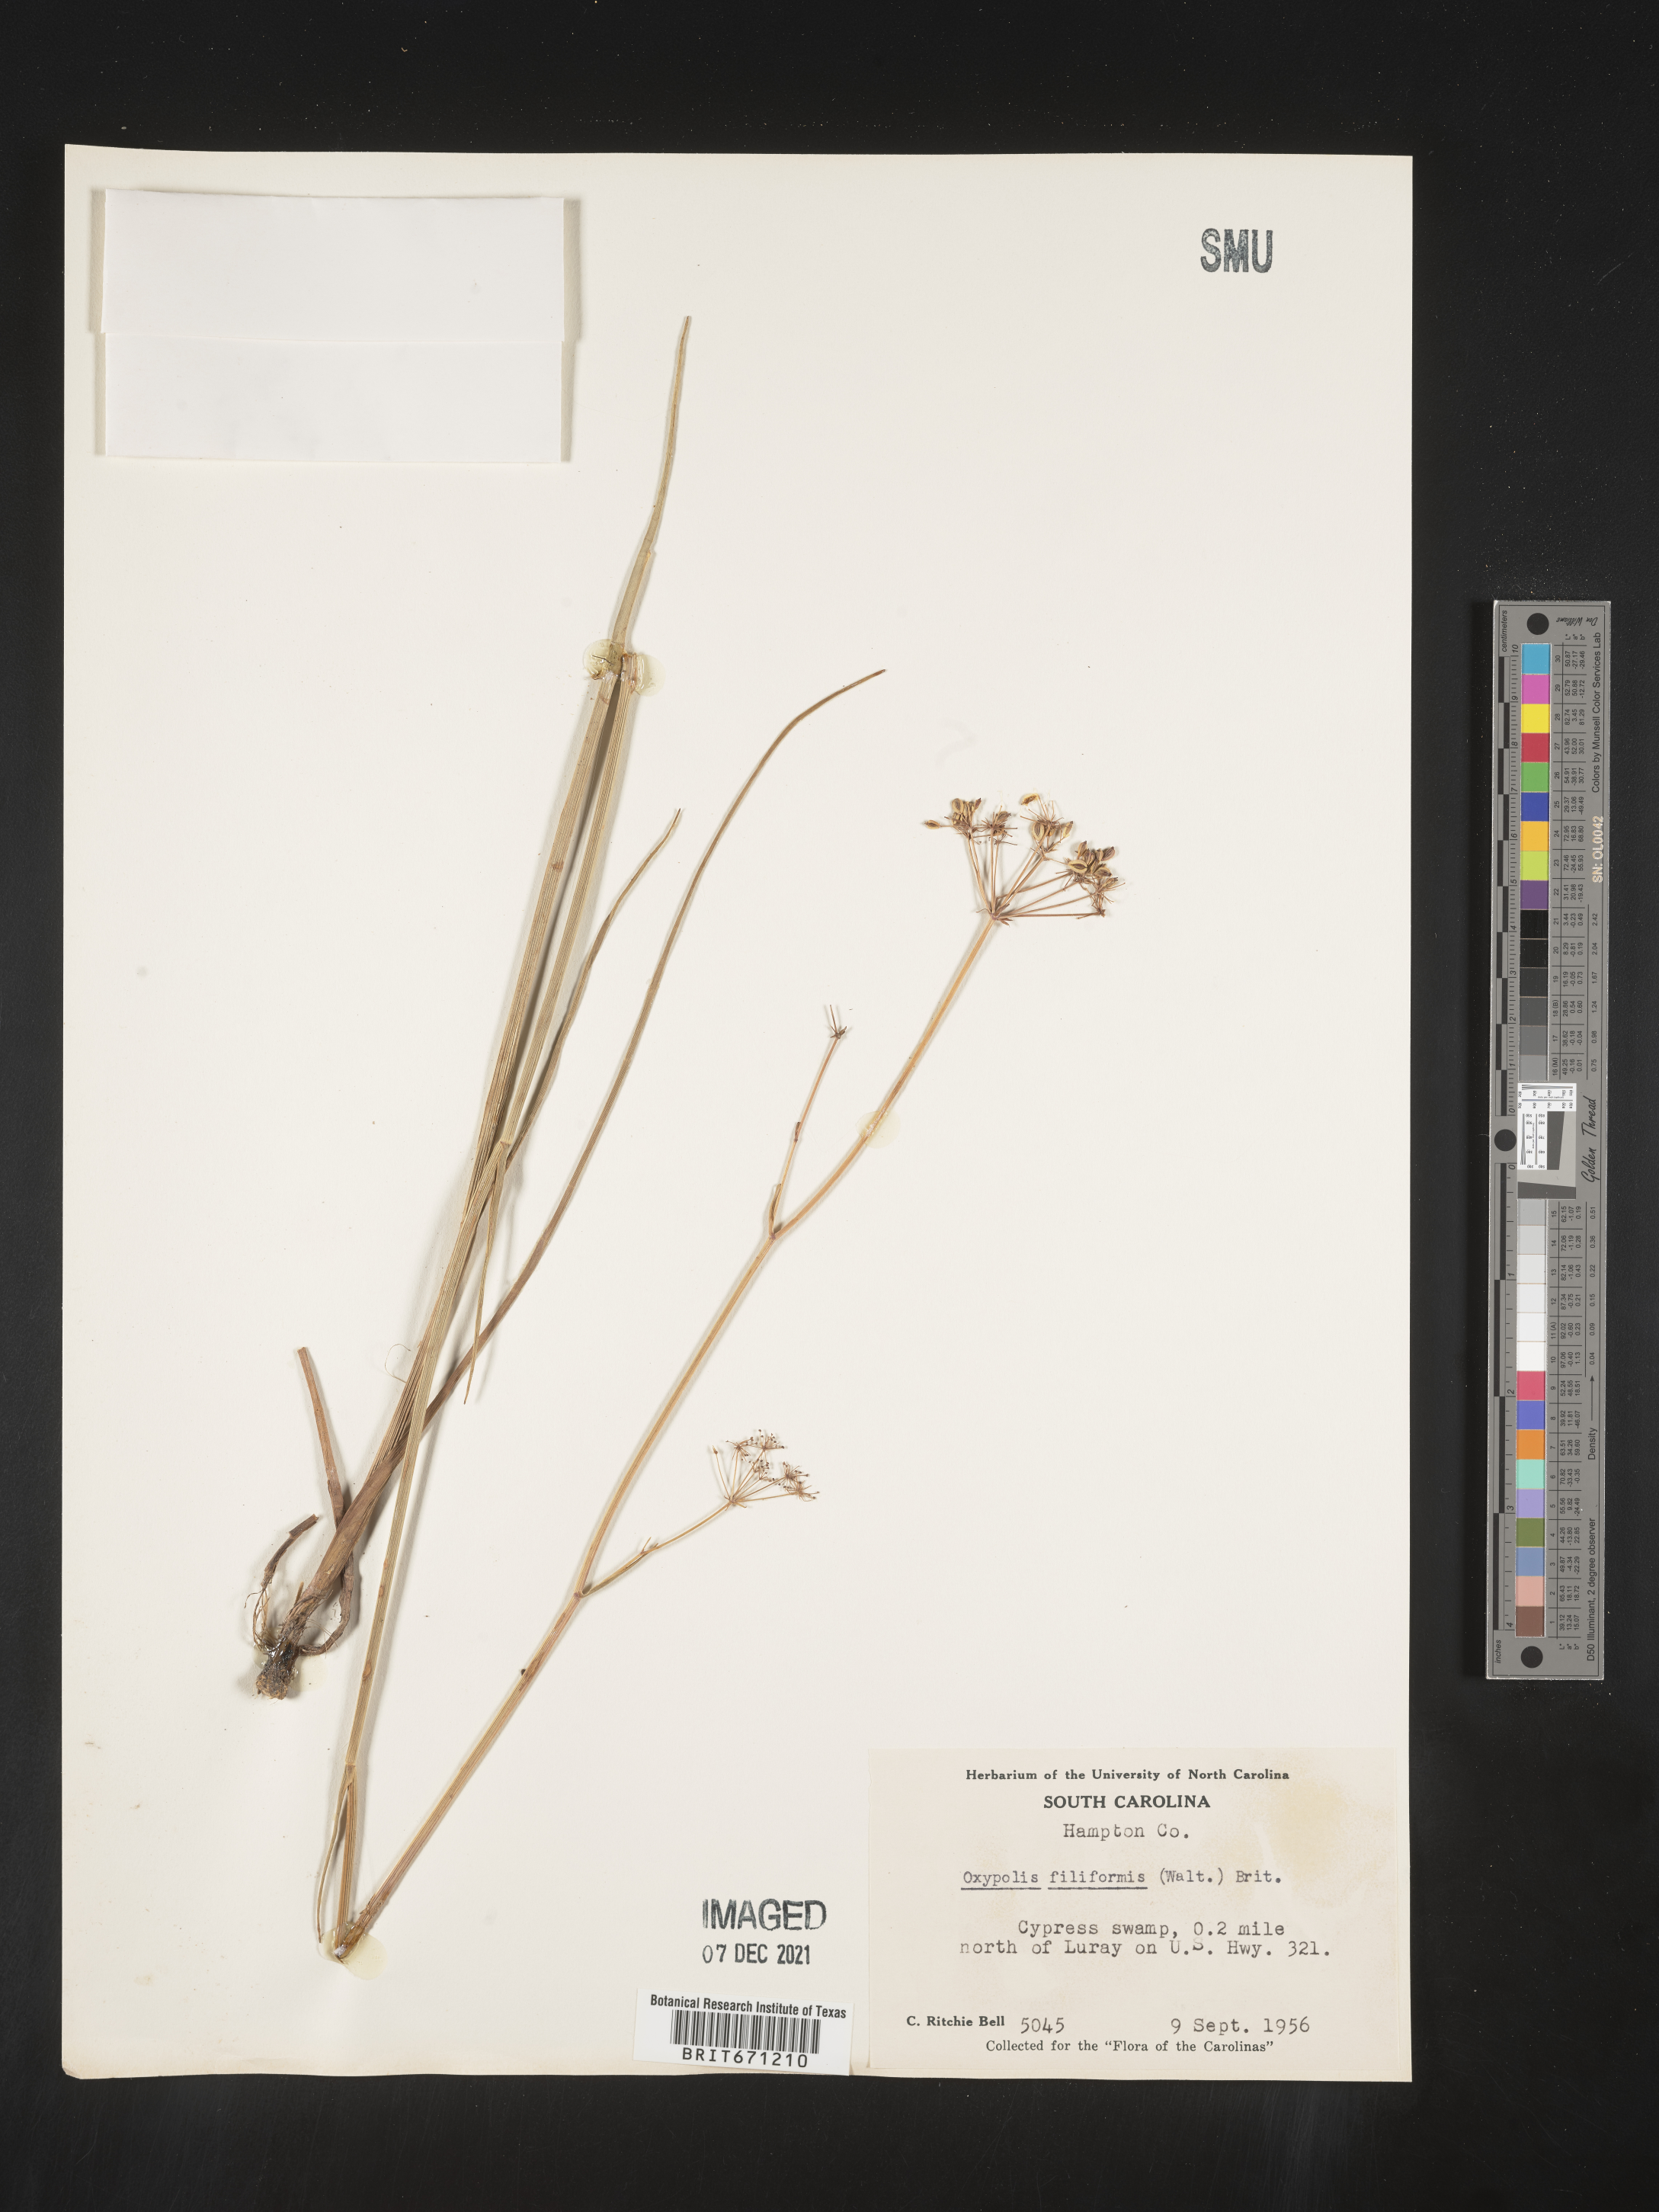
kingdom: Plantae
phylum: Tracheophyta
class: Magnoliopsida
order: Apiales
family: Apiaceae
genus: Tiedemannia
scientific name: Tiedemannia filiformis
